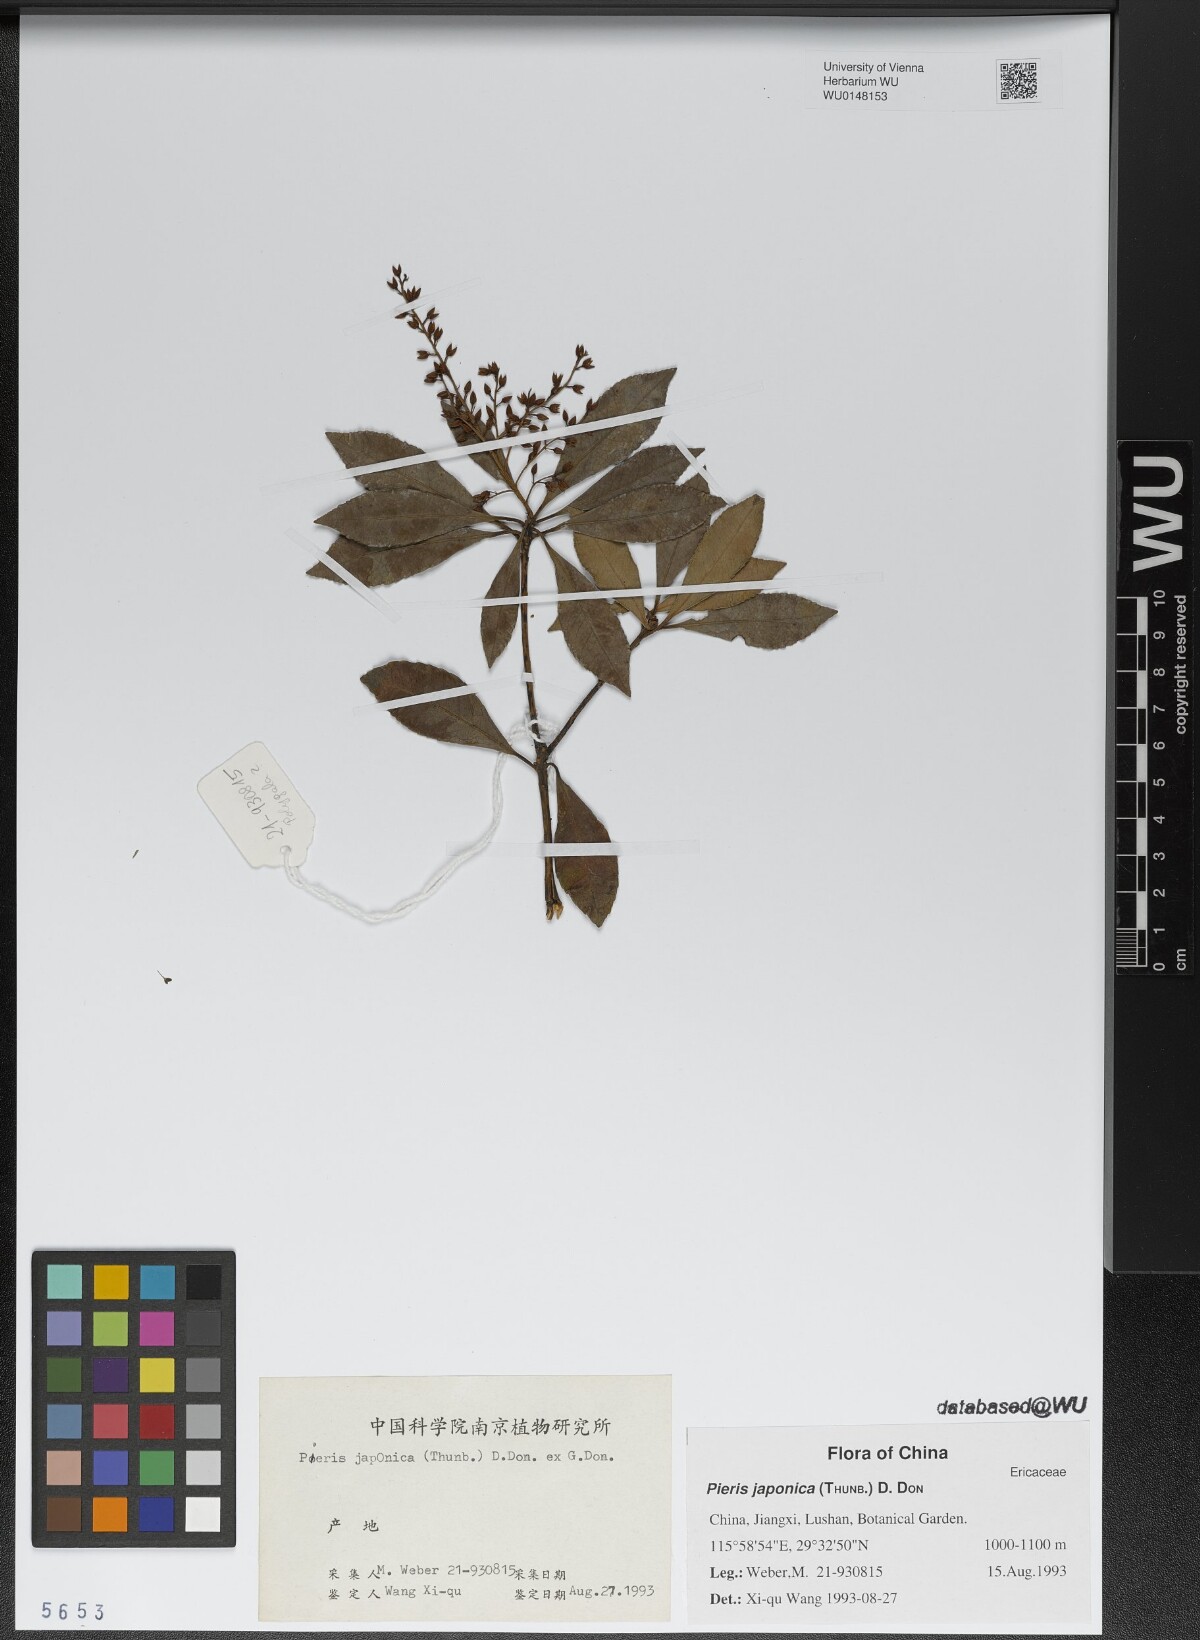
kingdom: Plantae
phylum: Tracheophyta
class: Magnoliopsida
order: Ericales
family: Ericaceae
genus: Pieris
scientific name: Pieris japonica
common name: Japanese pieris
